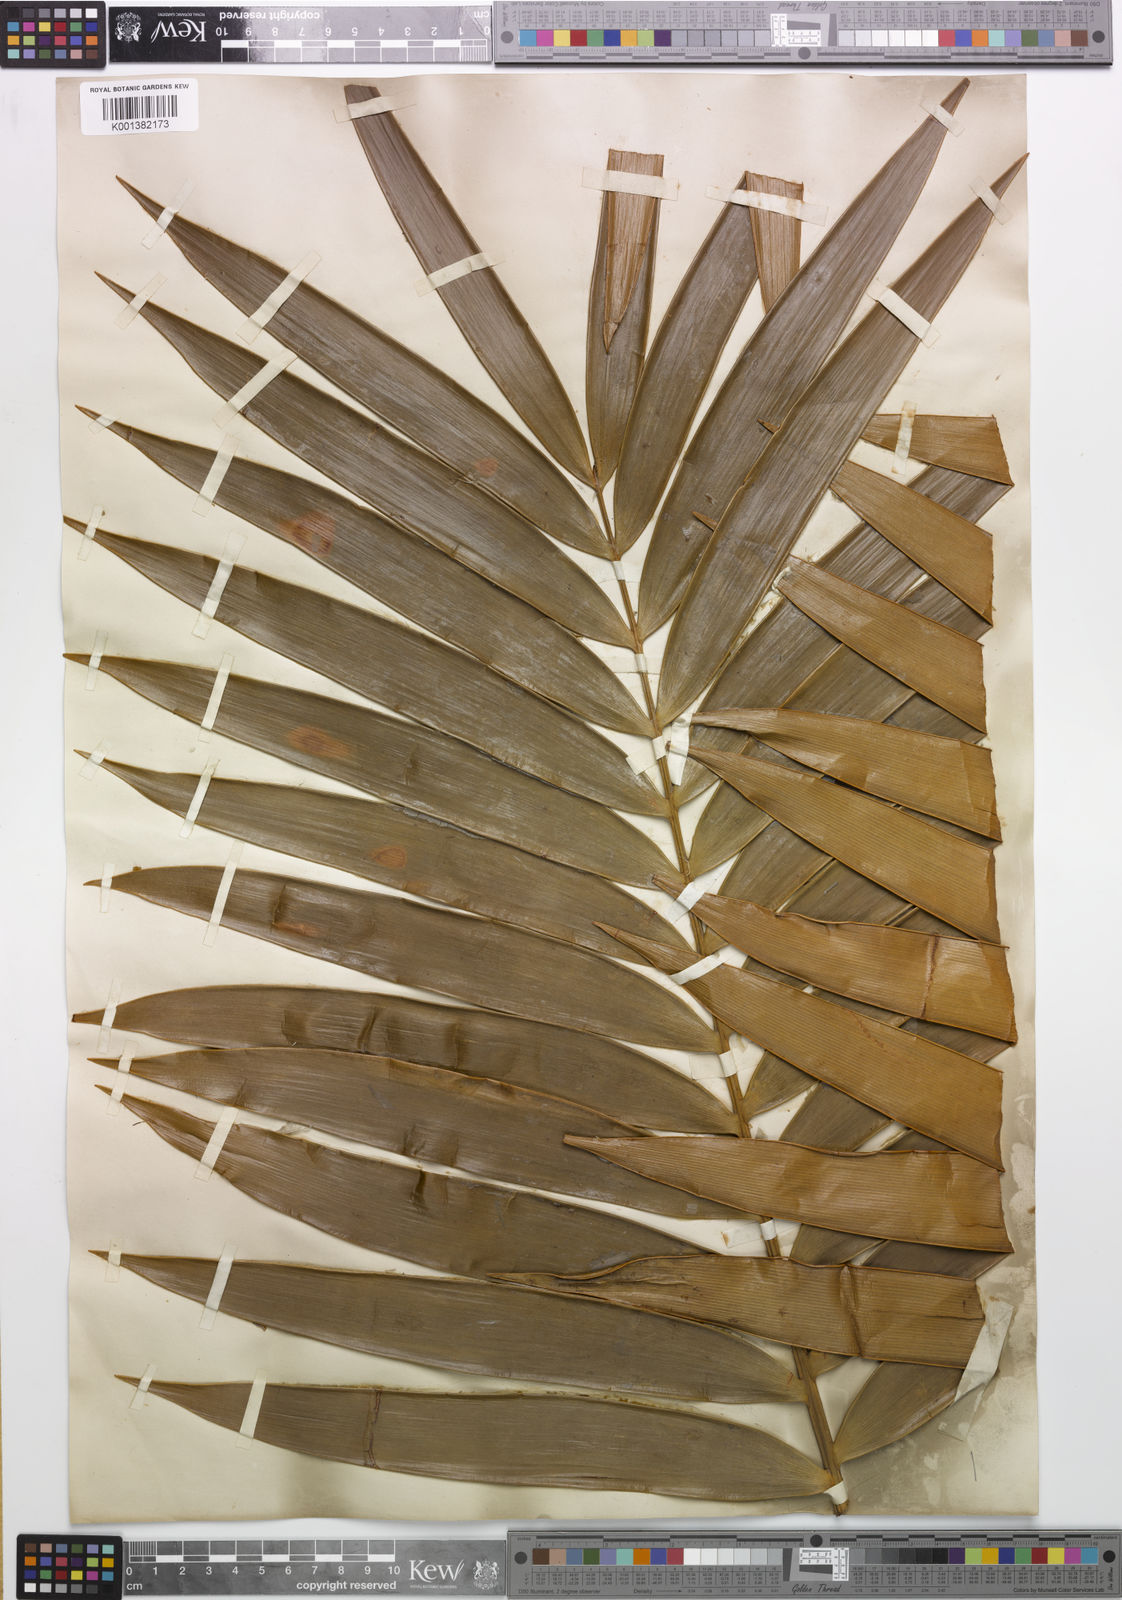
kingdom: Plantae
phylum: Tracheophyta
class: Cycadopsida
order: Cycadales
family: Zamiaceae
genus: Ceratozamia
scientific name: Ceratozamia latifolia
